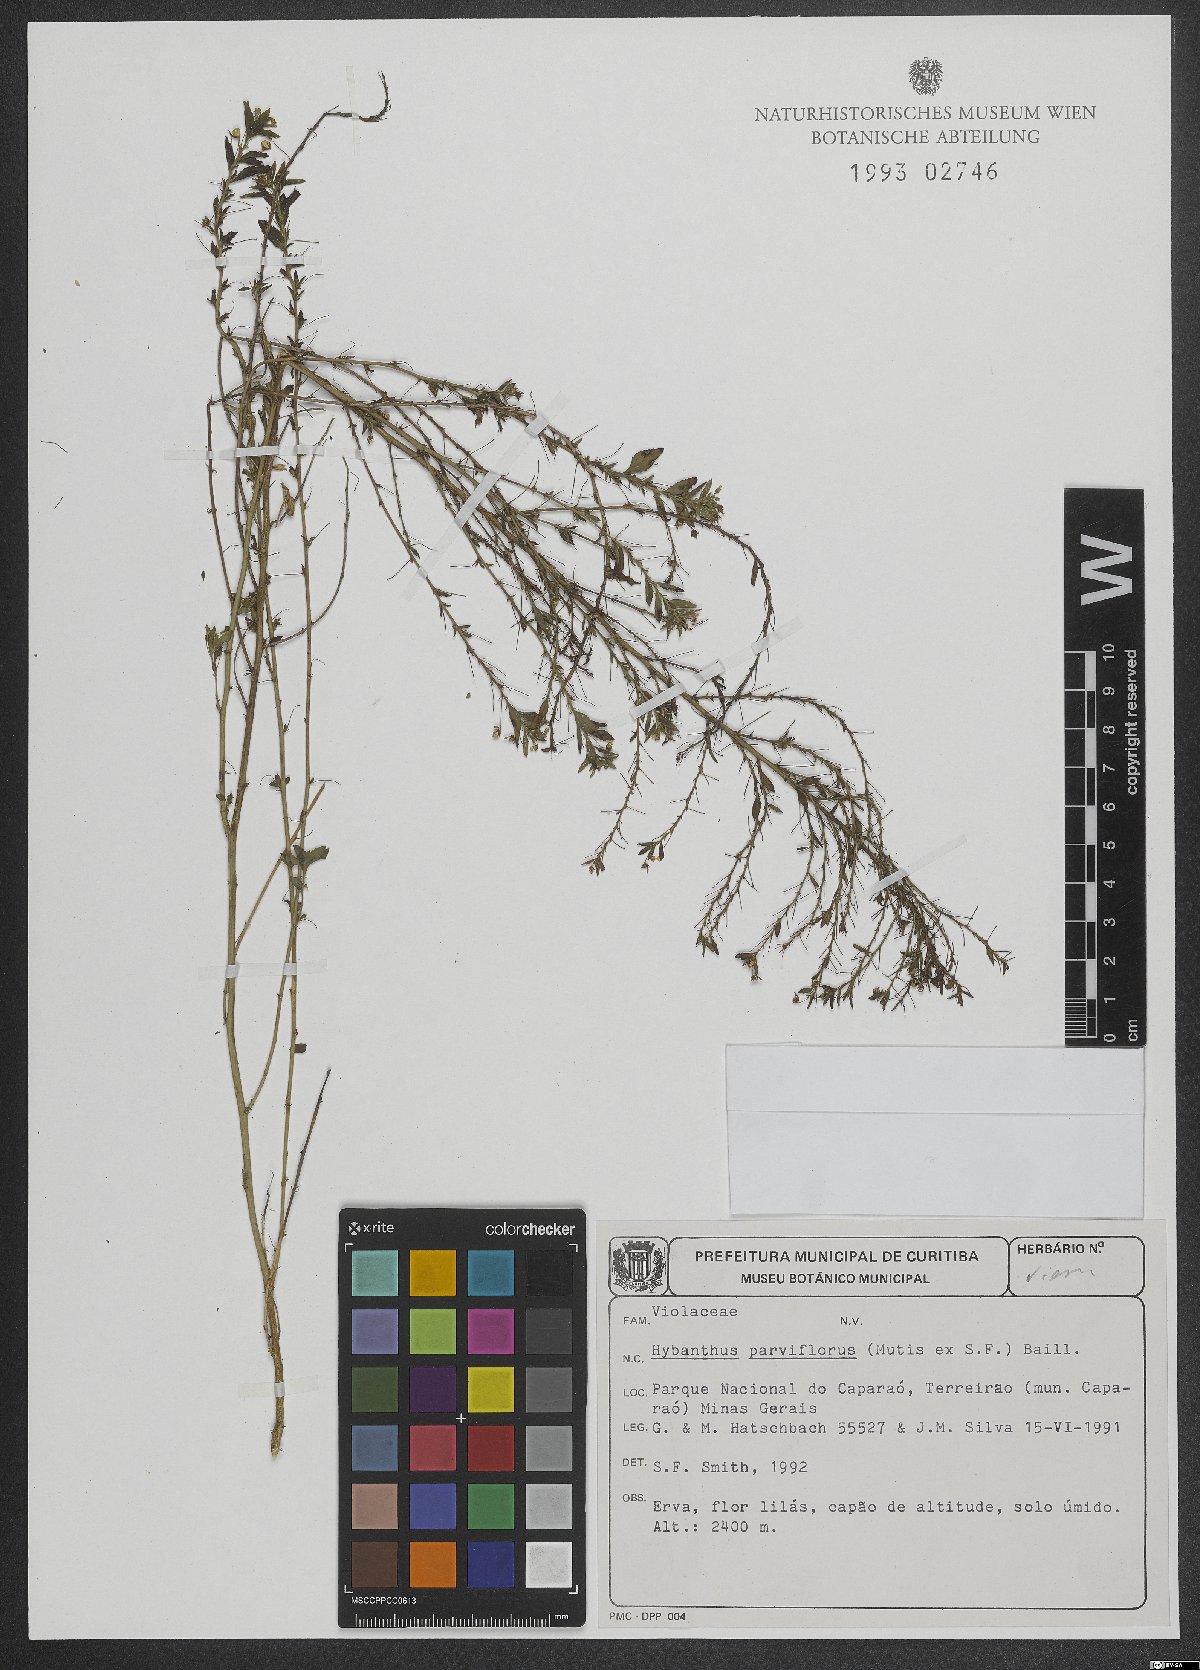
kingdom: Plantae
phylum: Tracheophyta
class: Magnoliopsida
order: Malpighiales
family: Violaceae
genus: Pombalia
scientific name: Pombalia parviflora
